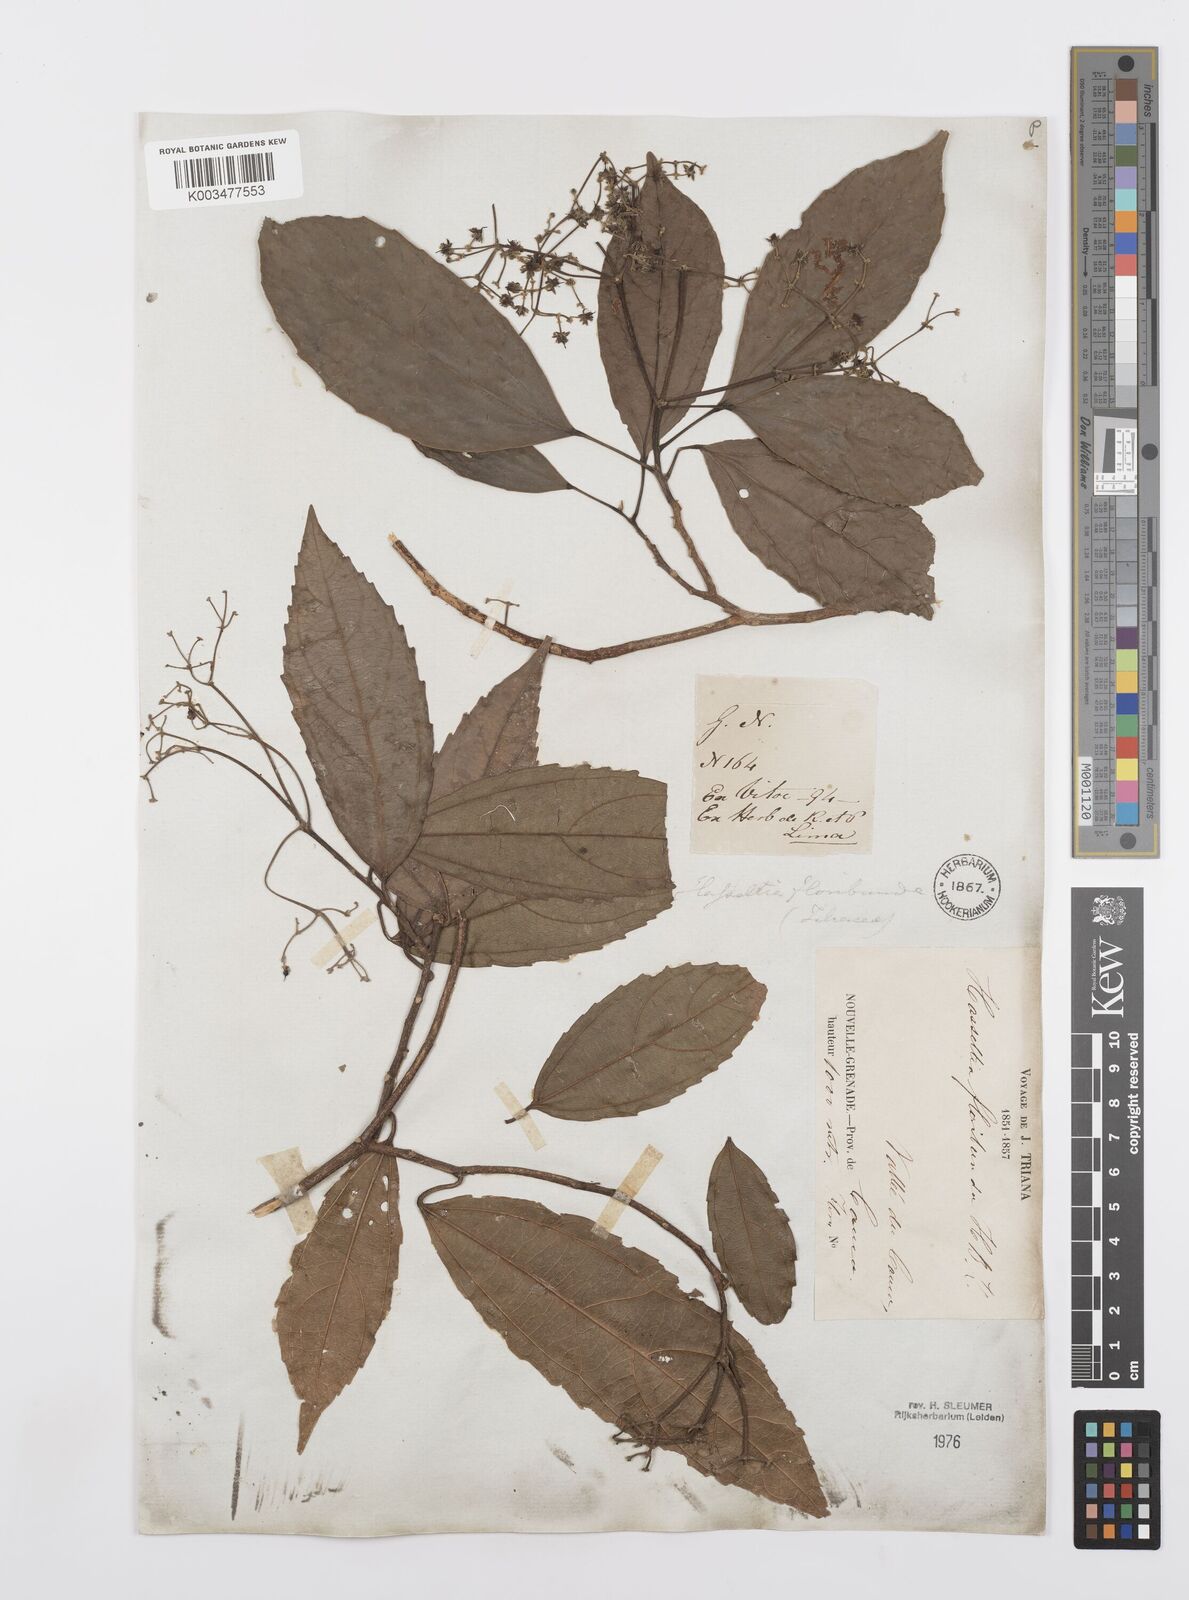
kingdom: Plantae
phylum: Tracheophyta
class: Magnoliopsida
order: Malpighiales
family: Salicaceae
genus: Hasseltia
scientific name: Hasseltia floribunda
